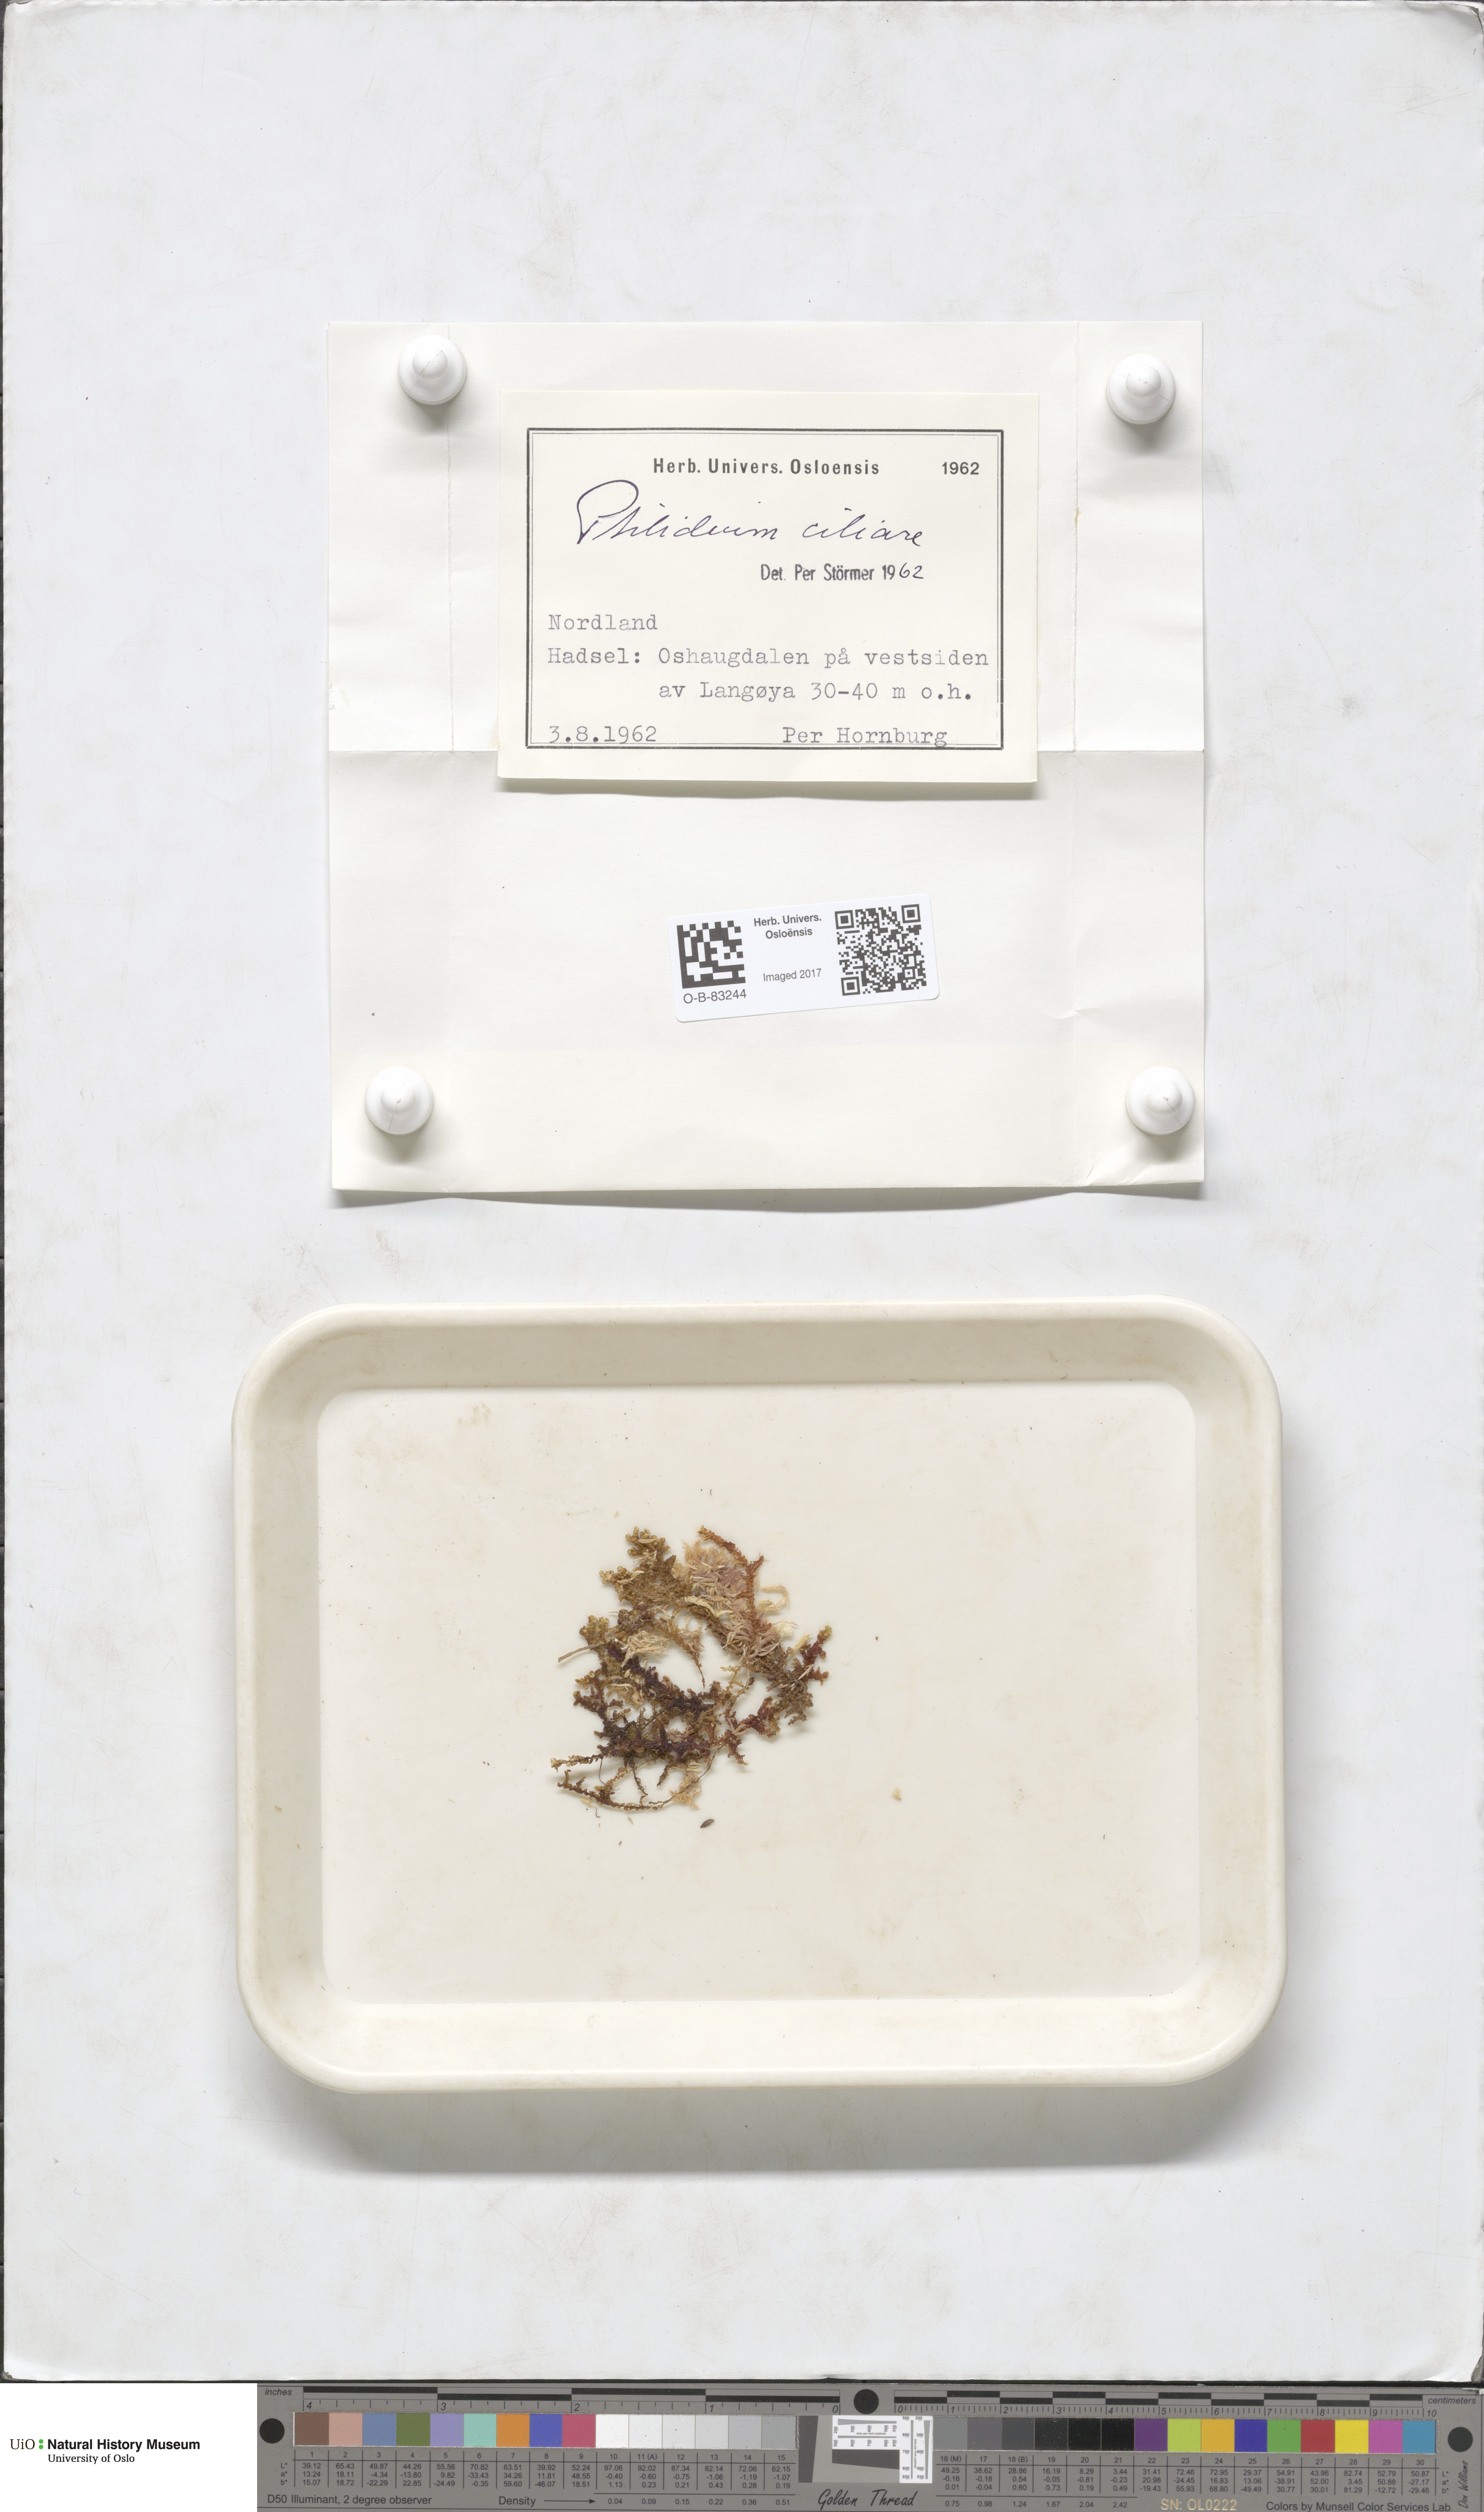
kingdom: Plantae
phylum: Marchantiophyta
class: Jungermanniopsida
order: Ptilidiales
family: Ptilidiaceae
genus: Ptilidium
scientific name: Ptilidium ciliare
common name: Ciliate fringewort
